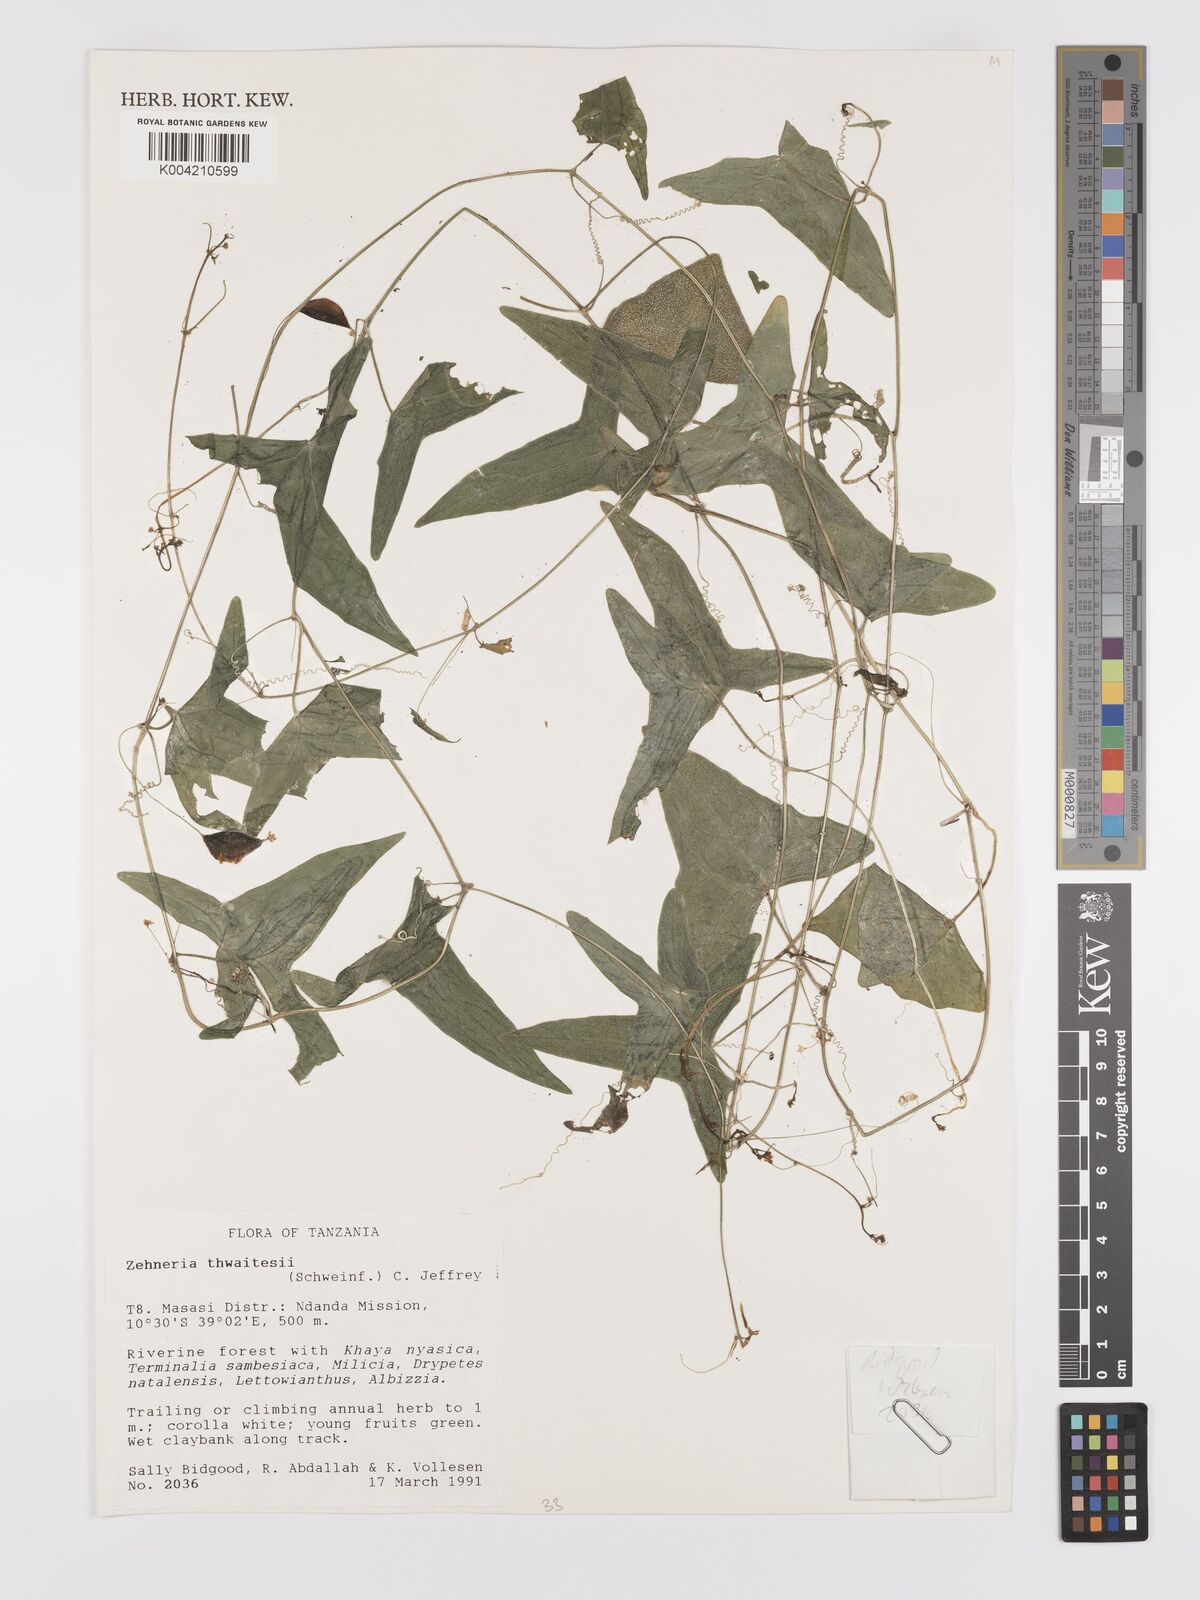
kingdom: Plantae
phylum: Tracheophyta
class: Magnoliopsida
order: Cucurbitales
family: Cucurbitaceae
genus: Zehneria
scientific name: Zehneria thwaitesii
